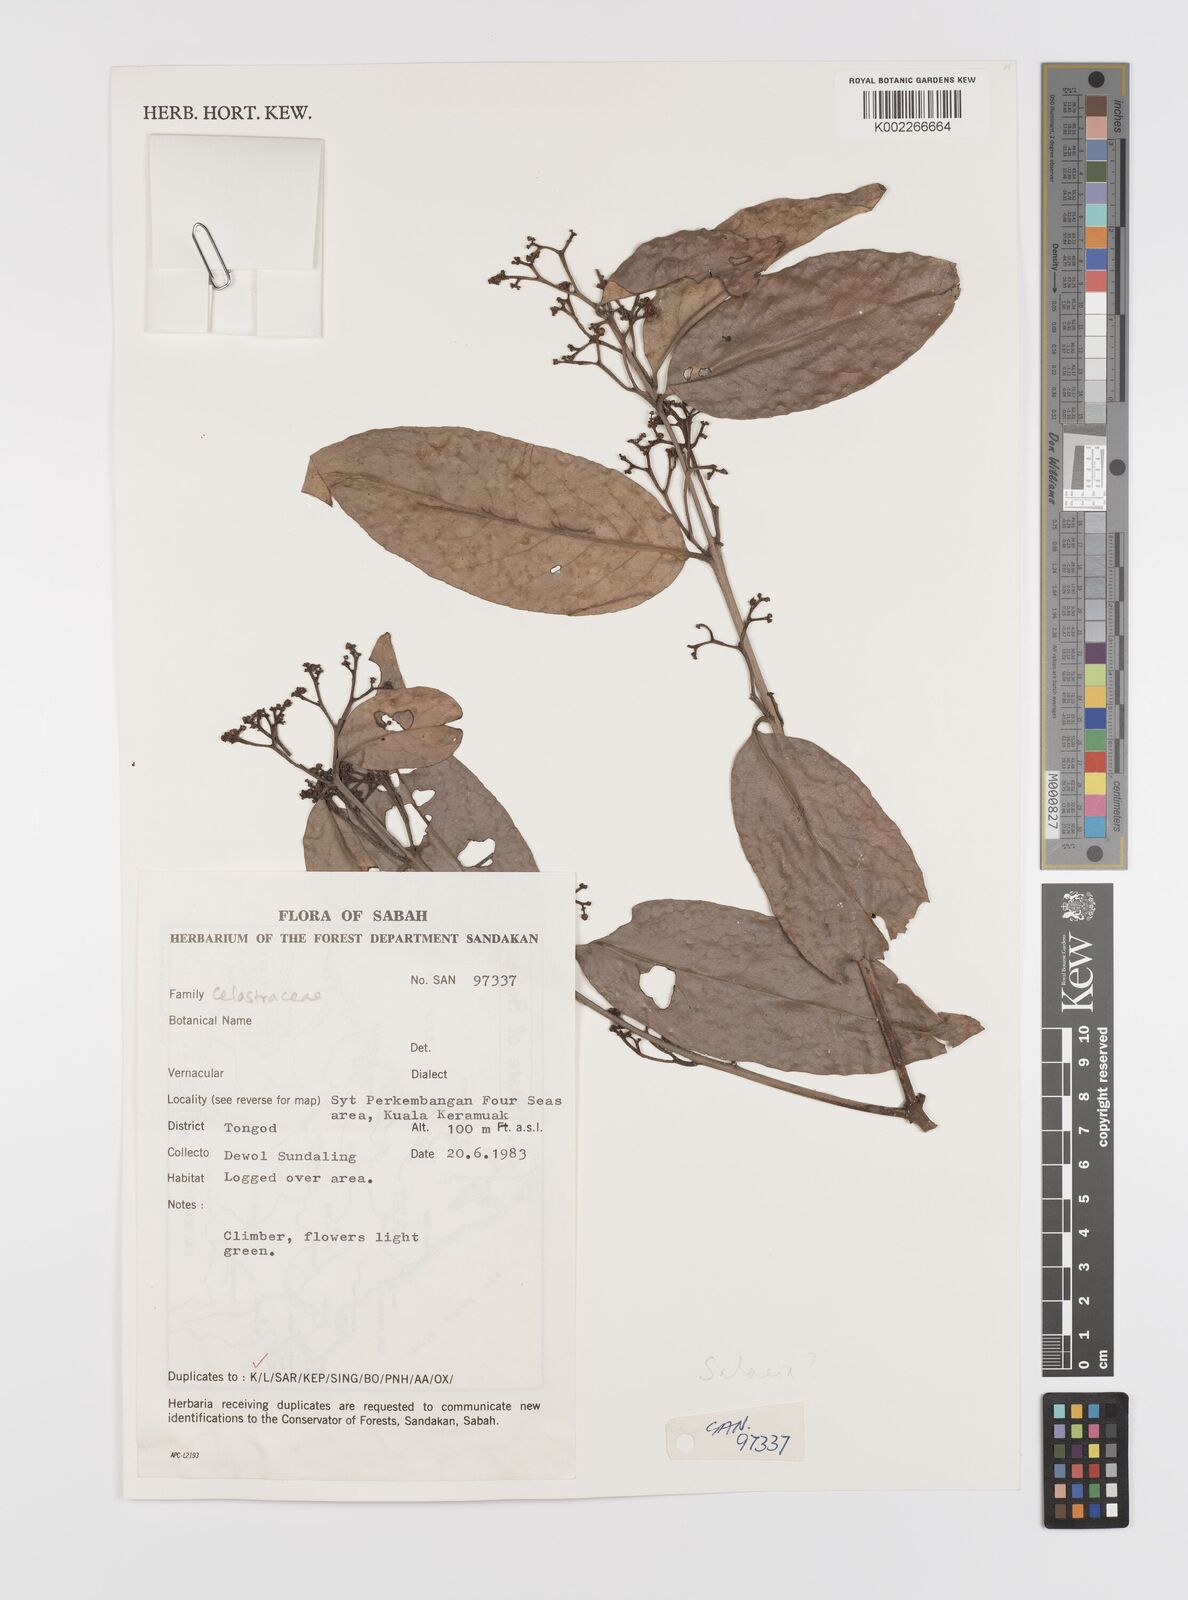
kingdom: Plantae
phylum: Tracheophyta
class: Magnoliopsida
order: Celastrales
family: Celastraceae
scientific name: Celastraceae
